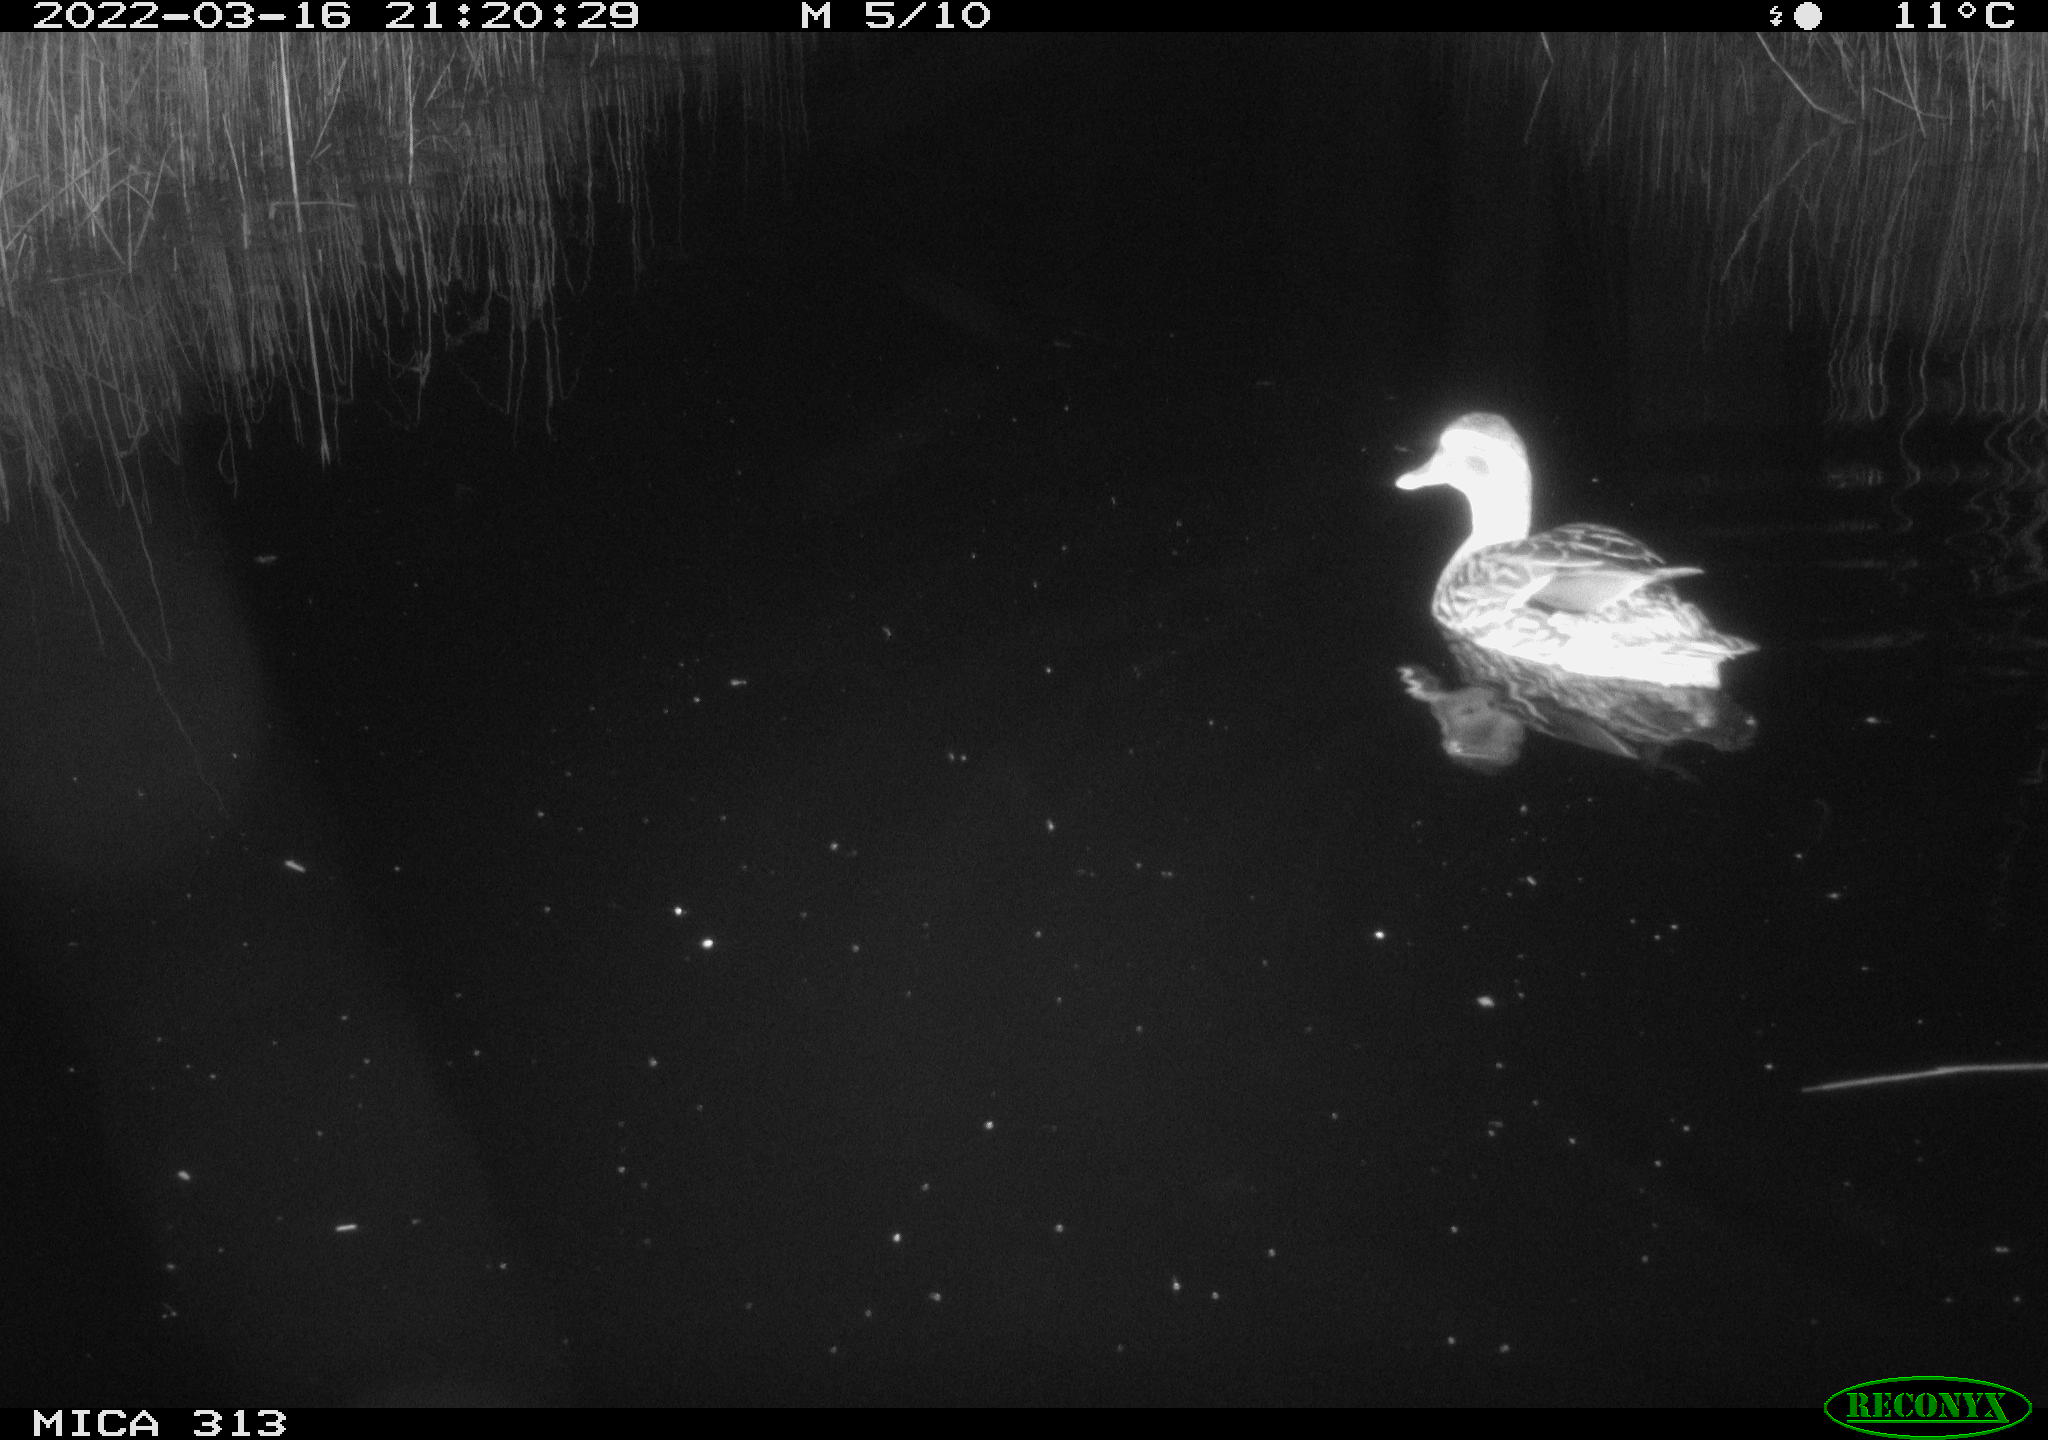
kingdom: Animalia
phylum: Chordata
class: Aves
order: Anseriformes
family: Anatidae
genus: Anas
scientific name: Anas platyrhynchos
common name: Mallard
